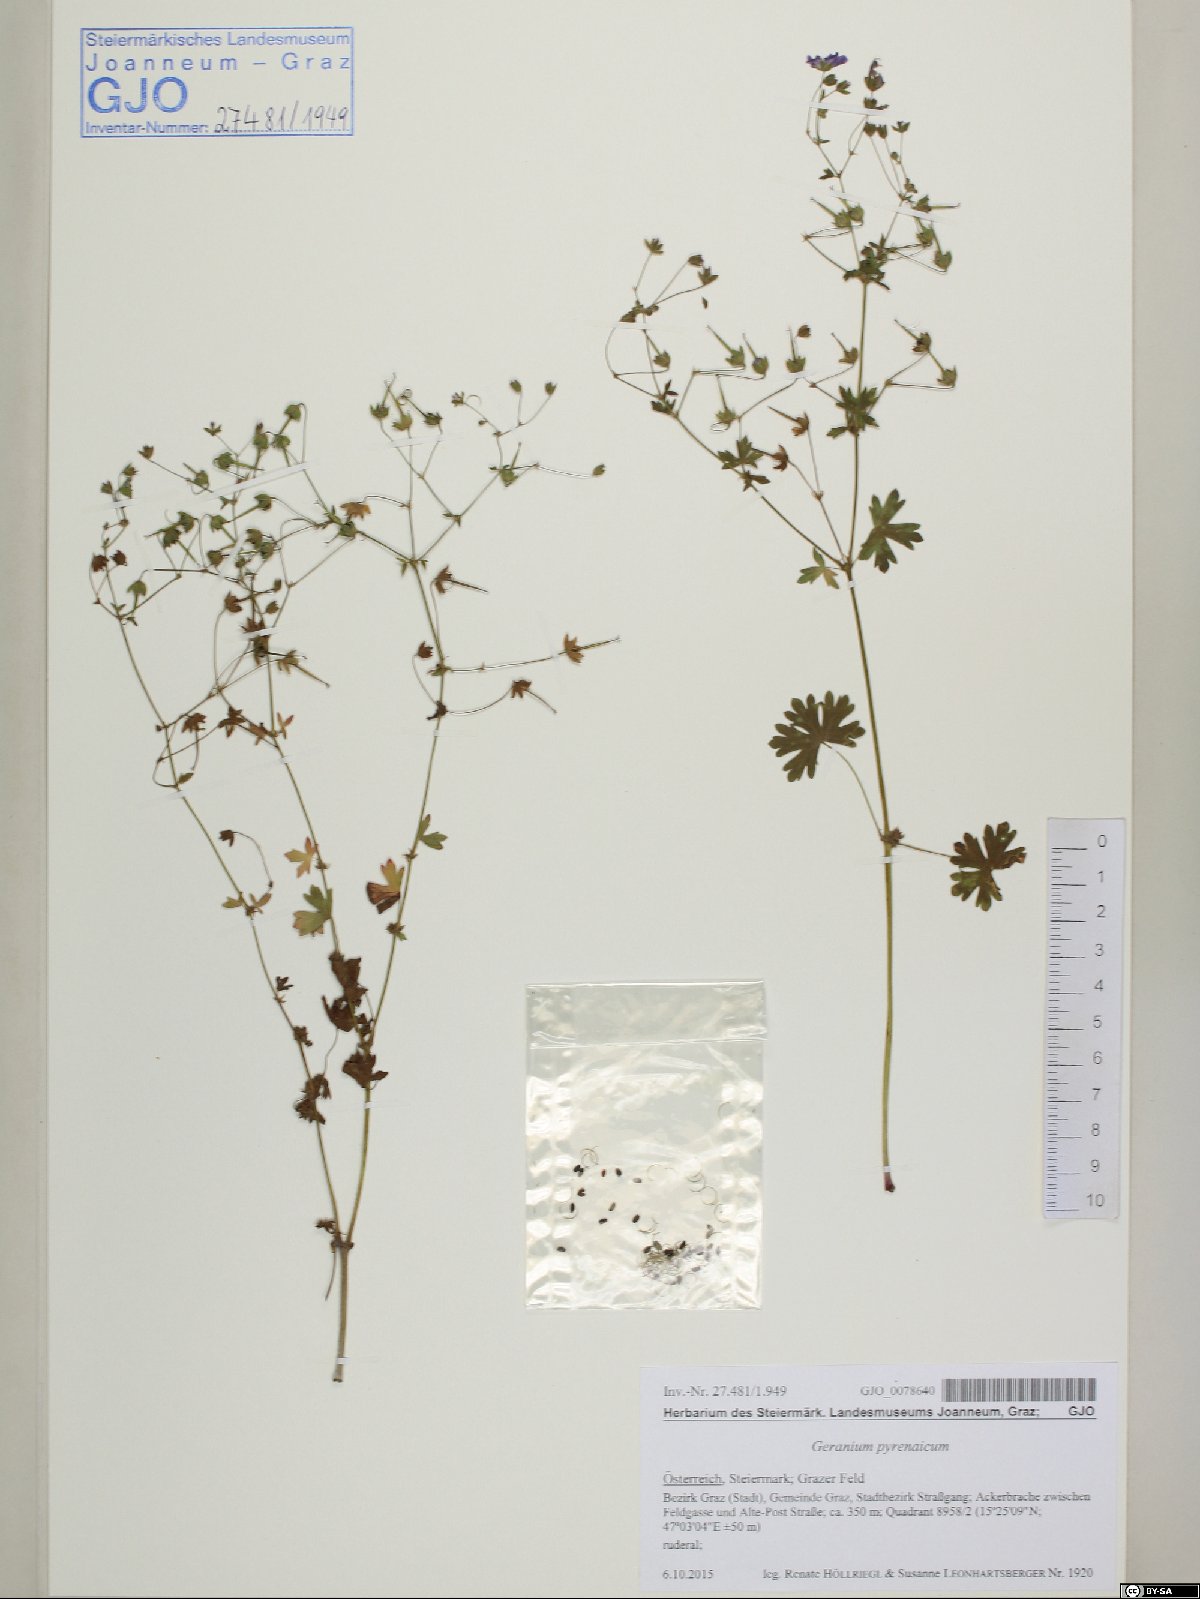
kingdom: Plantae
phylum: Tracheophyta
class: Magnoliopsida
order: Geraniales
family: Geraniaceae
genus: Geranium
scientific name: Geranium pyrenaicum
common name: Hedgerow crane's-bill
